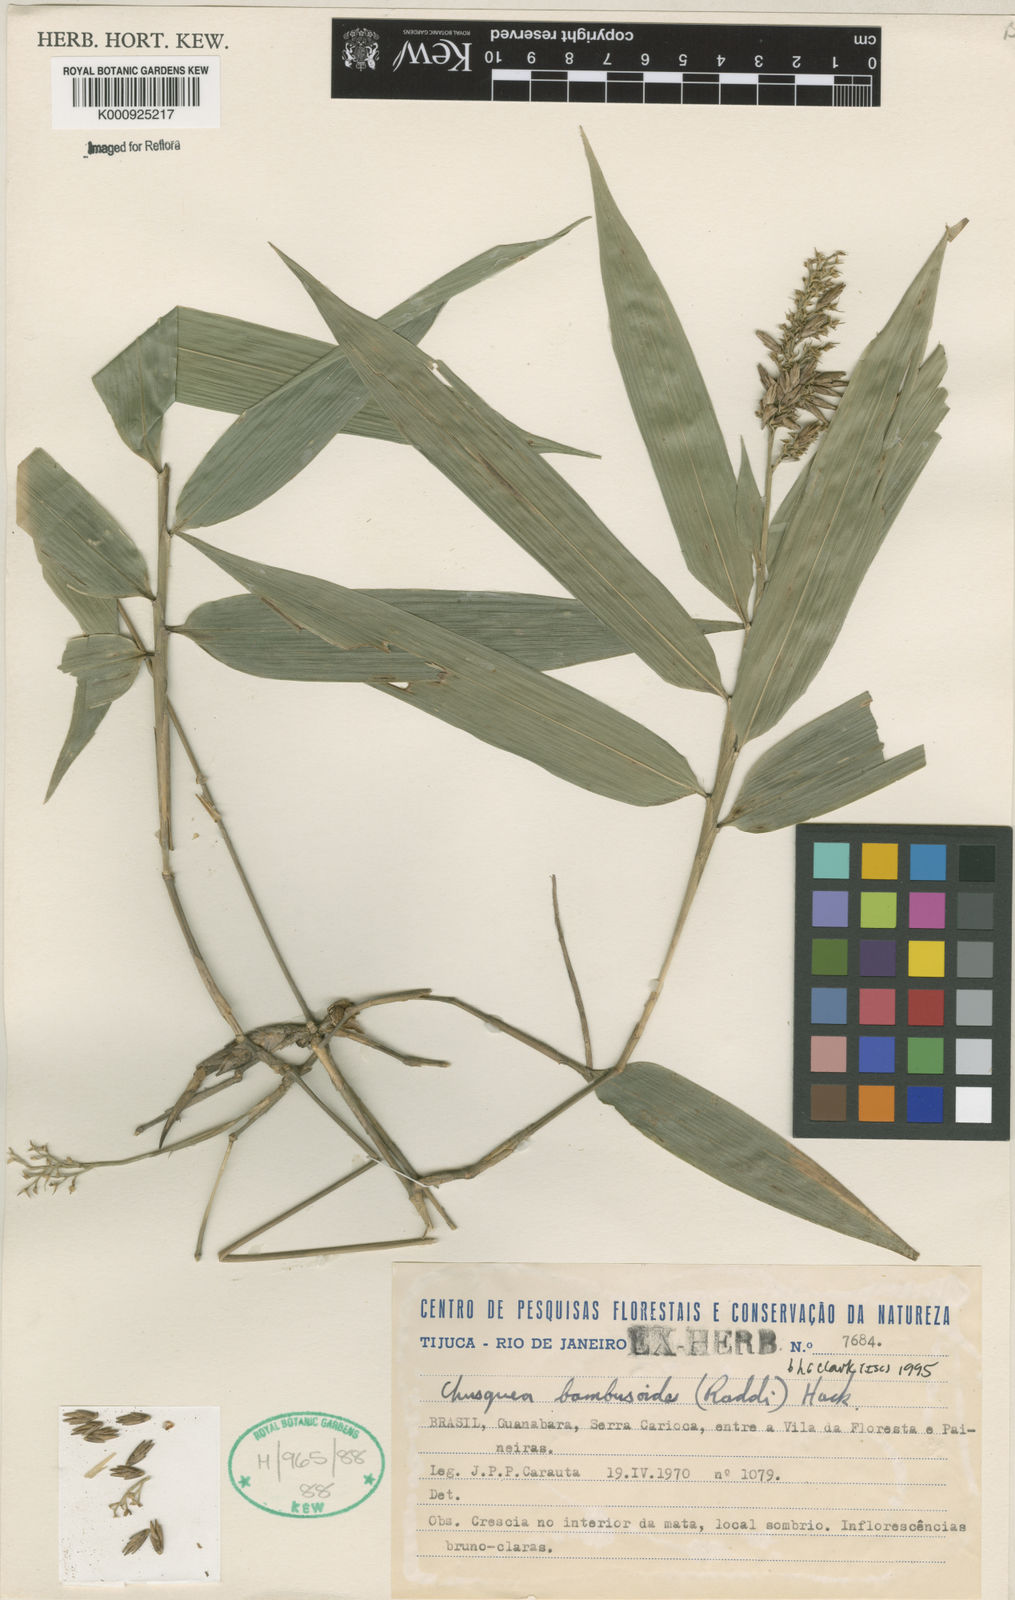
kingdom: Plantae
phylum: Tracheophyta
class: Liliopsida
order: Poales
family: Poaceae
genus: Chusquea
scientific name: Chusquea bambusoides
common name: Brazil scrambling bamboo
